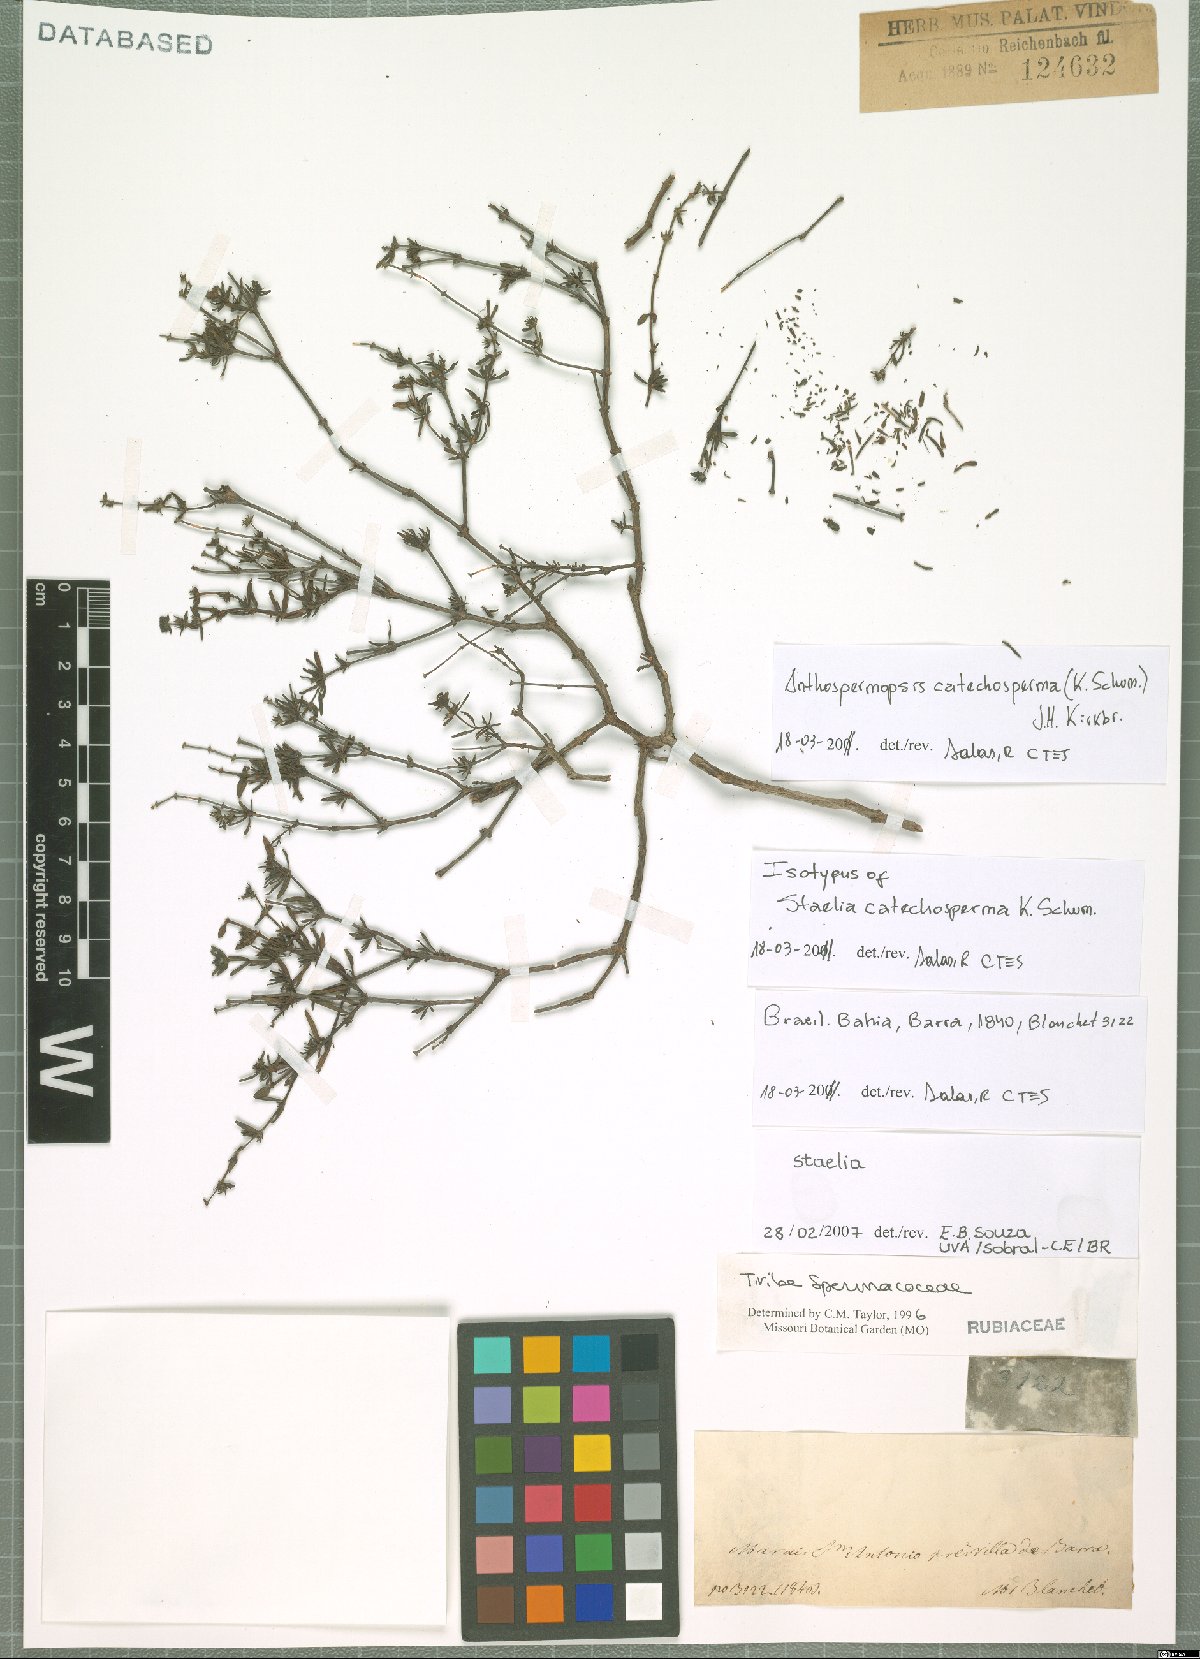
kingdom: Plantae
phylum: Tracheophyta
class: Magnoliopsida
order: Gentianales
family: Rubiaceae
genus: Anthospermopsis
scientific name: Anthospermopsis catechosperma
